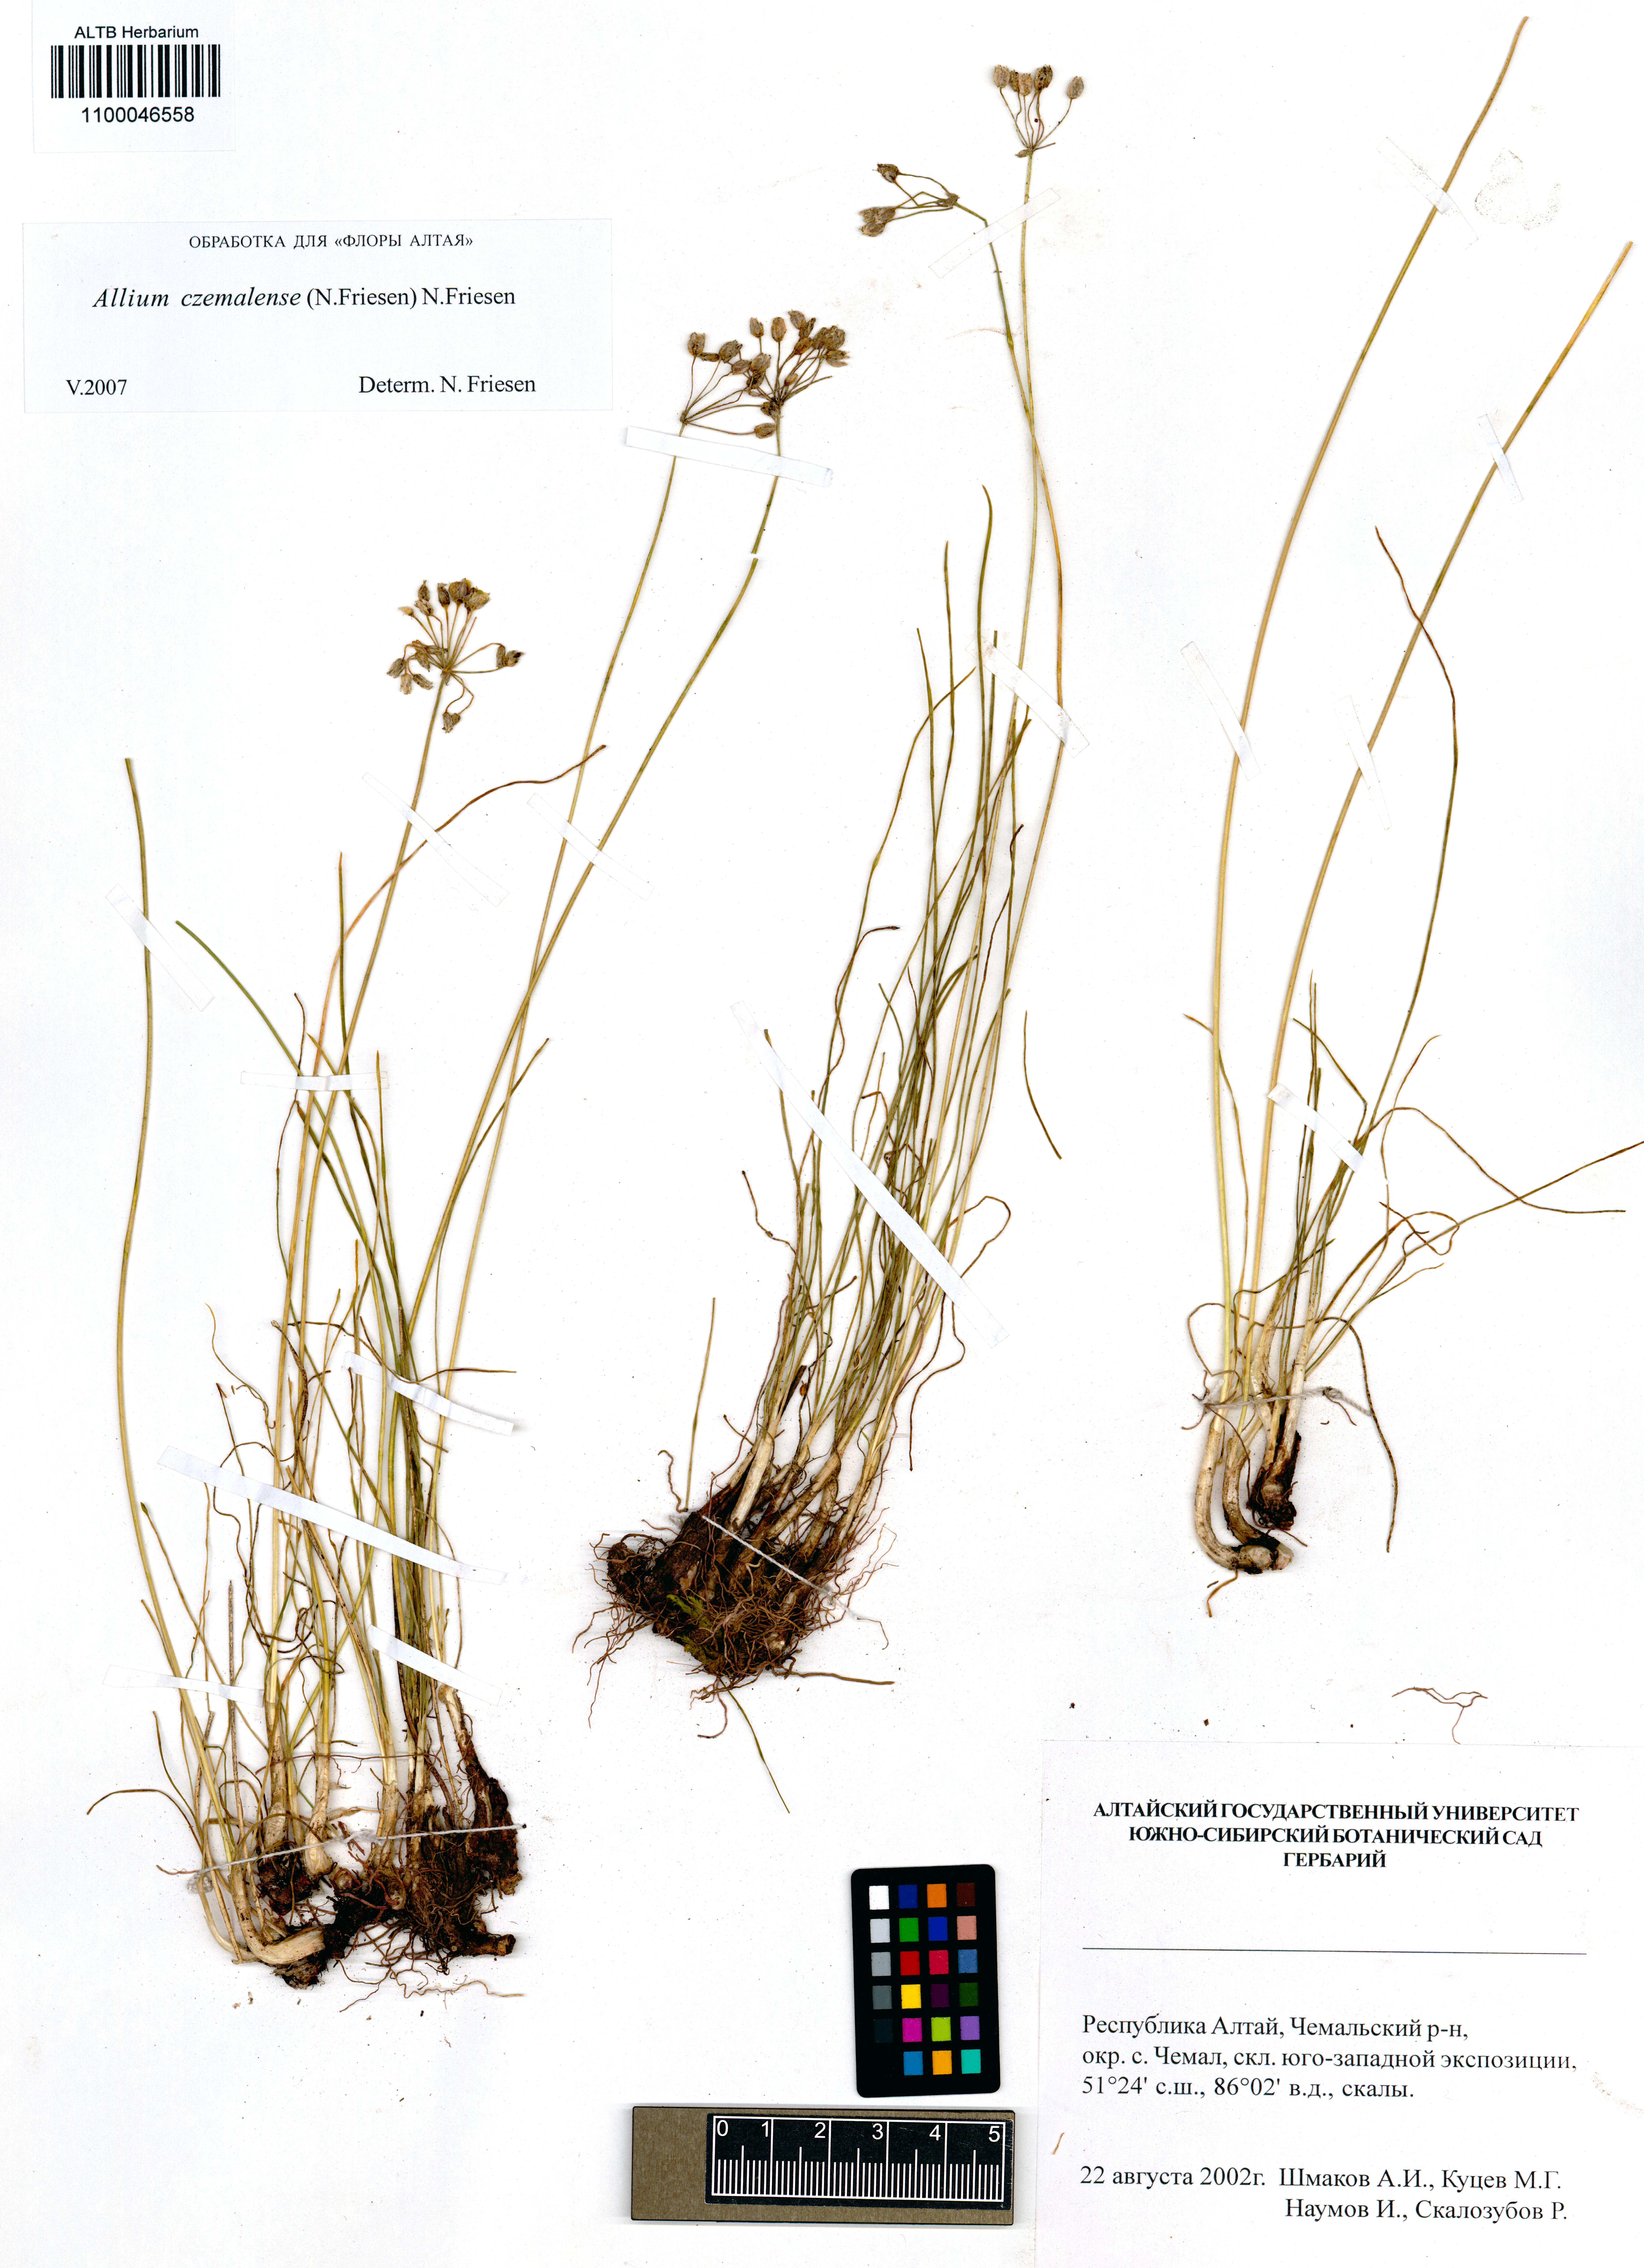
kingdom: Plantae
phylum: Tracheophyta
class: Liliopsida
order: Asparagales
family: Amaryllidaceae
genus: Allium
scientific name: Allium
